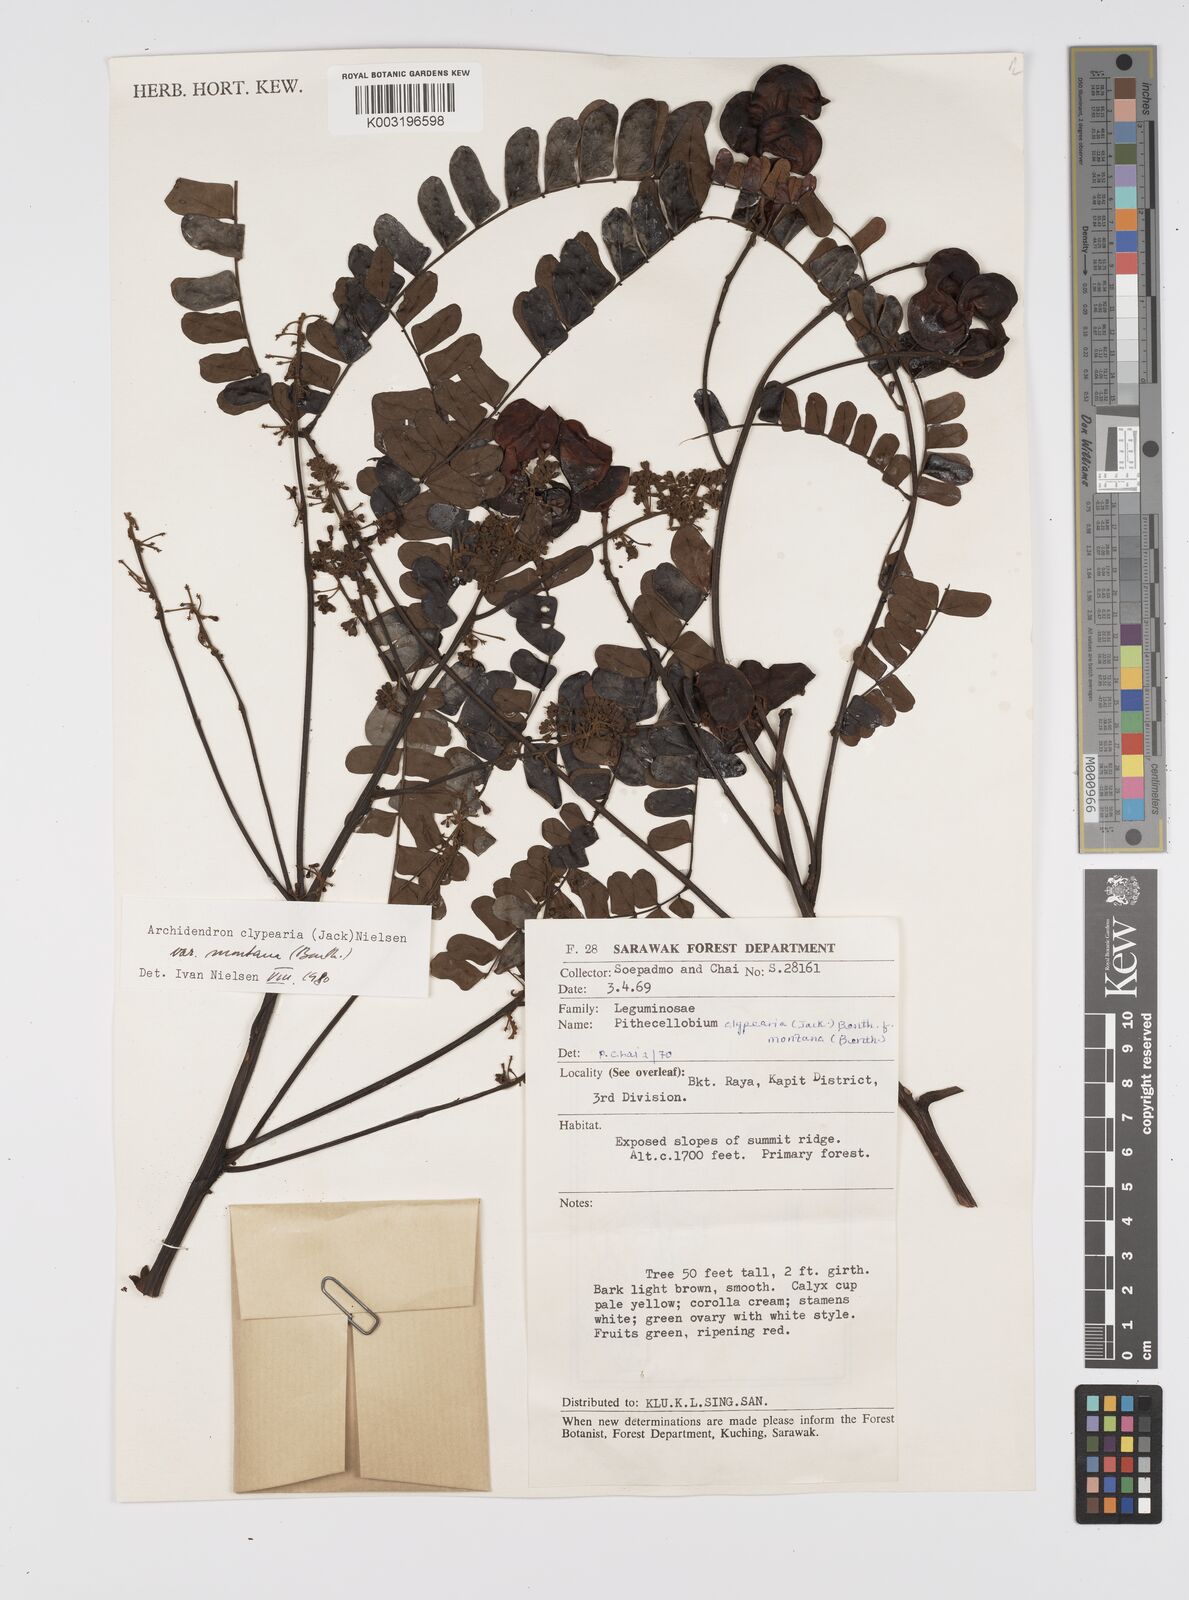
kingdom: Plantae
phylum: Tracheophyta
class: Magnoliopsida
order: Fabales
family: Fabaceae
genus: Archidendron
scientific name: Archidendron clypearia
